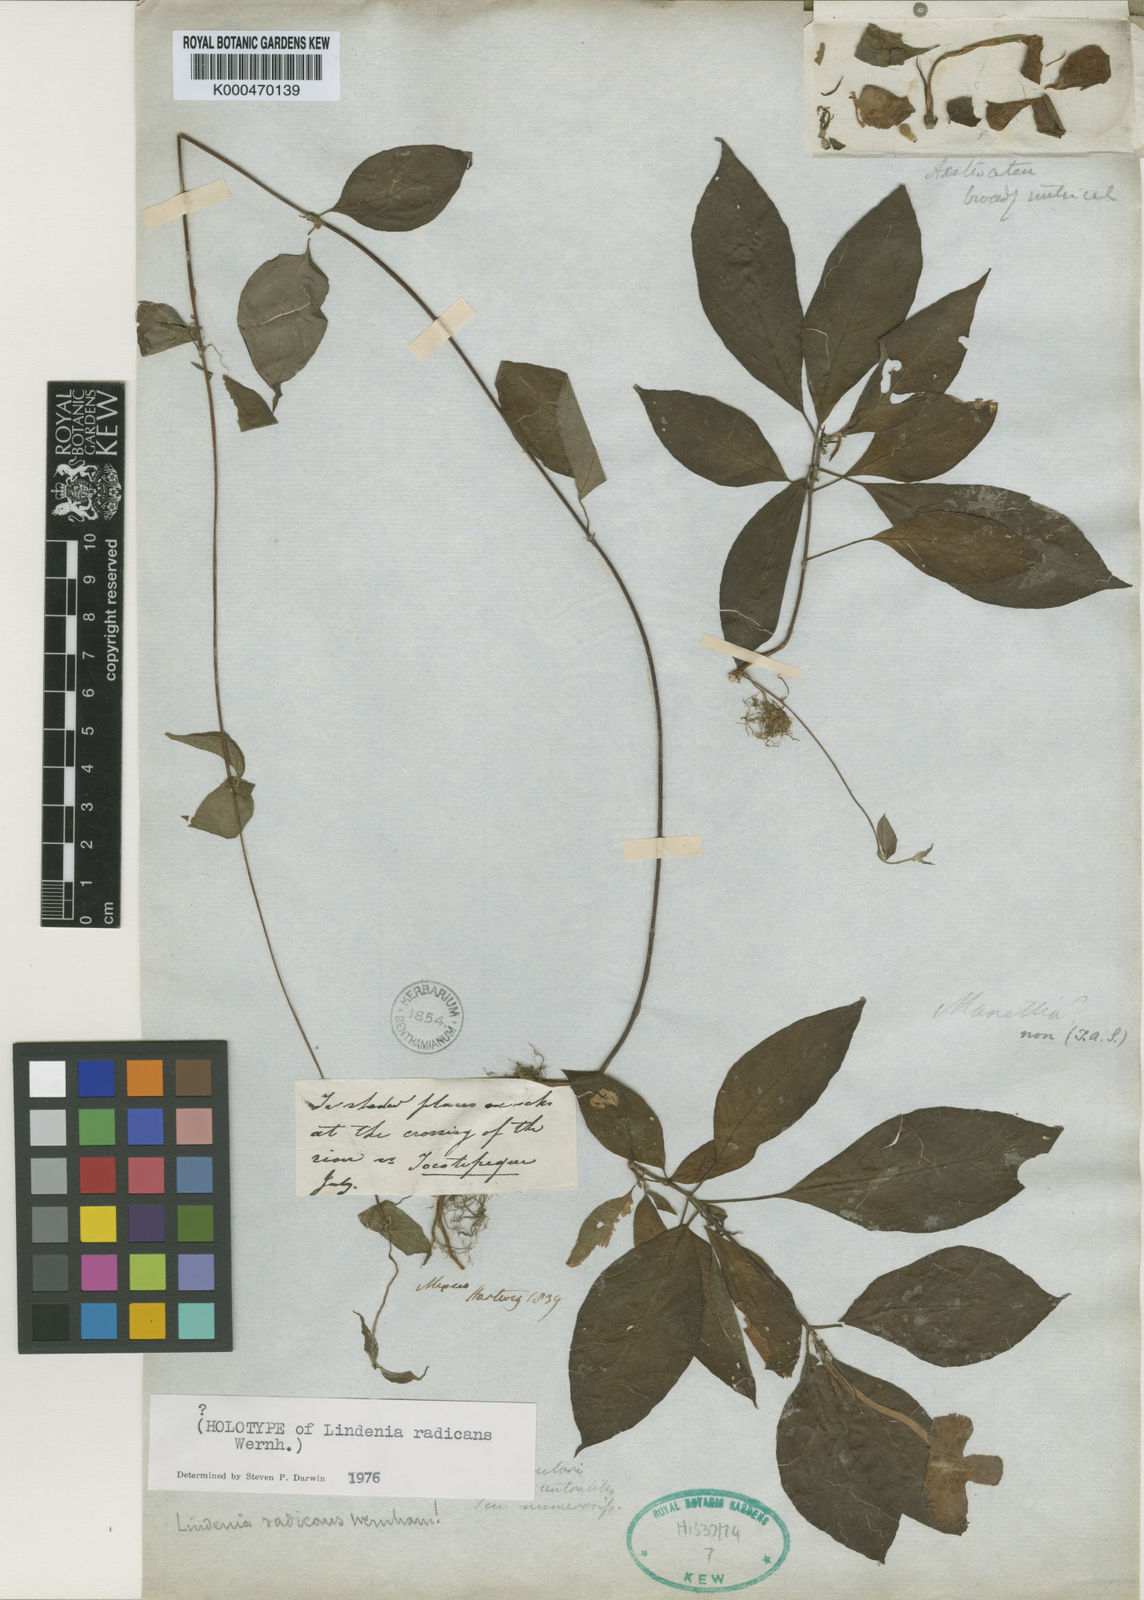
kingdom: Plantae
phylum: Tracheophyta
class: Magnoliopsida
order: Gentianales
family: Rubiaceae
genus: Augusta
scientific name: Augusta
